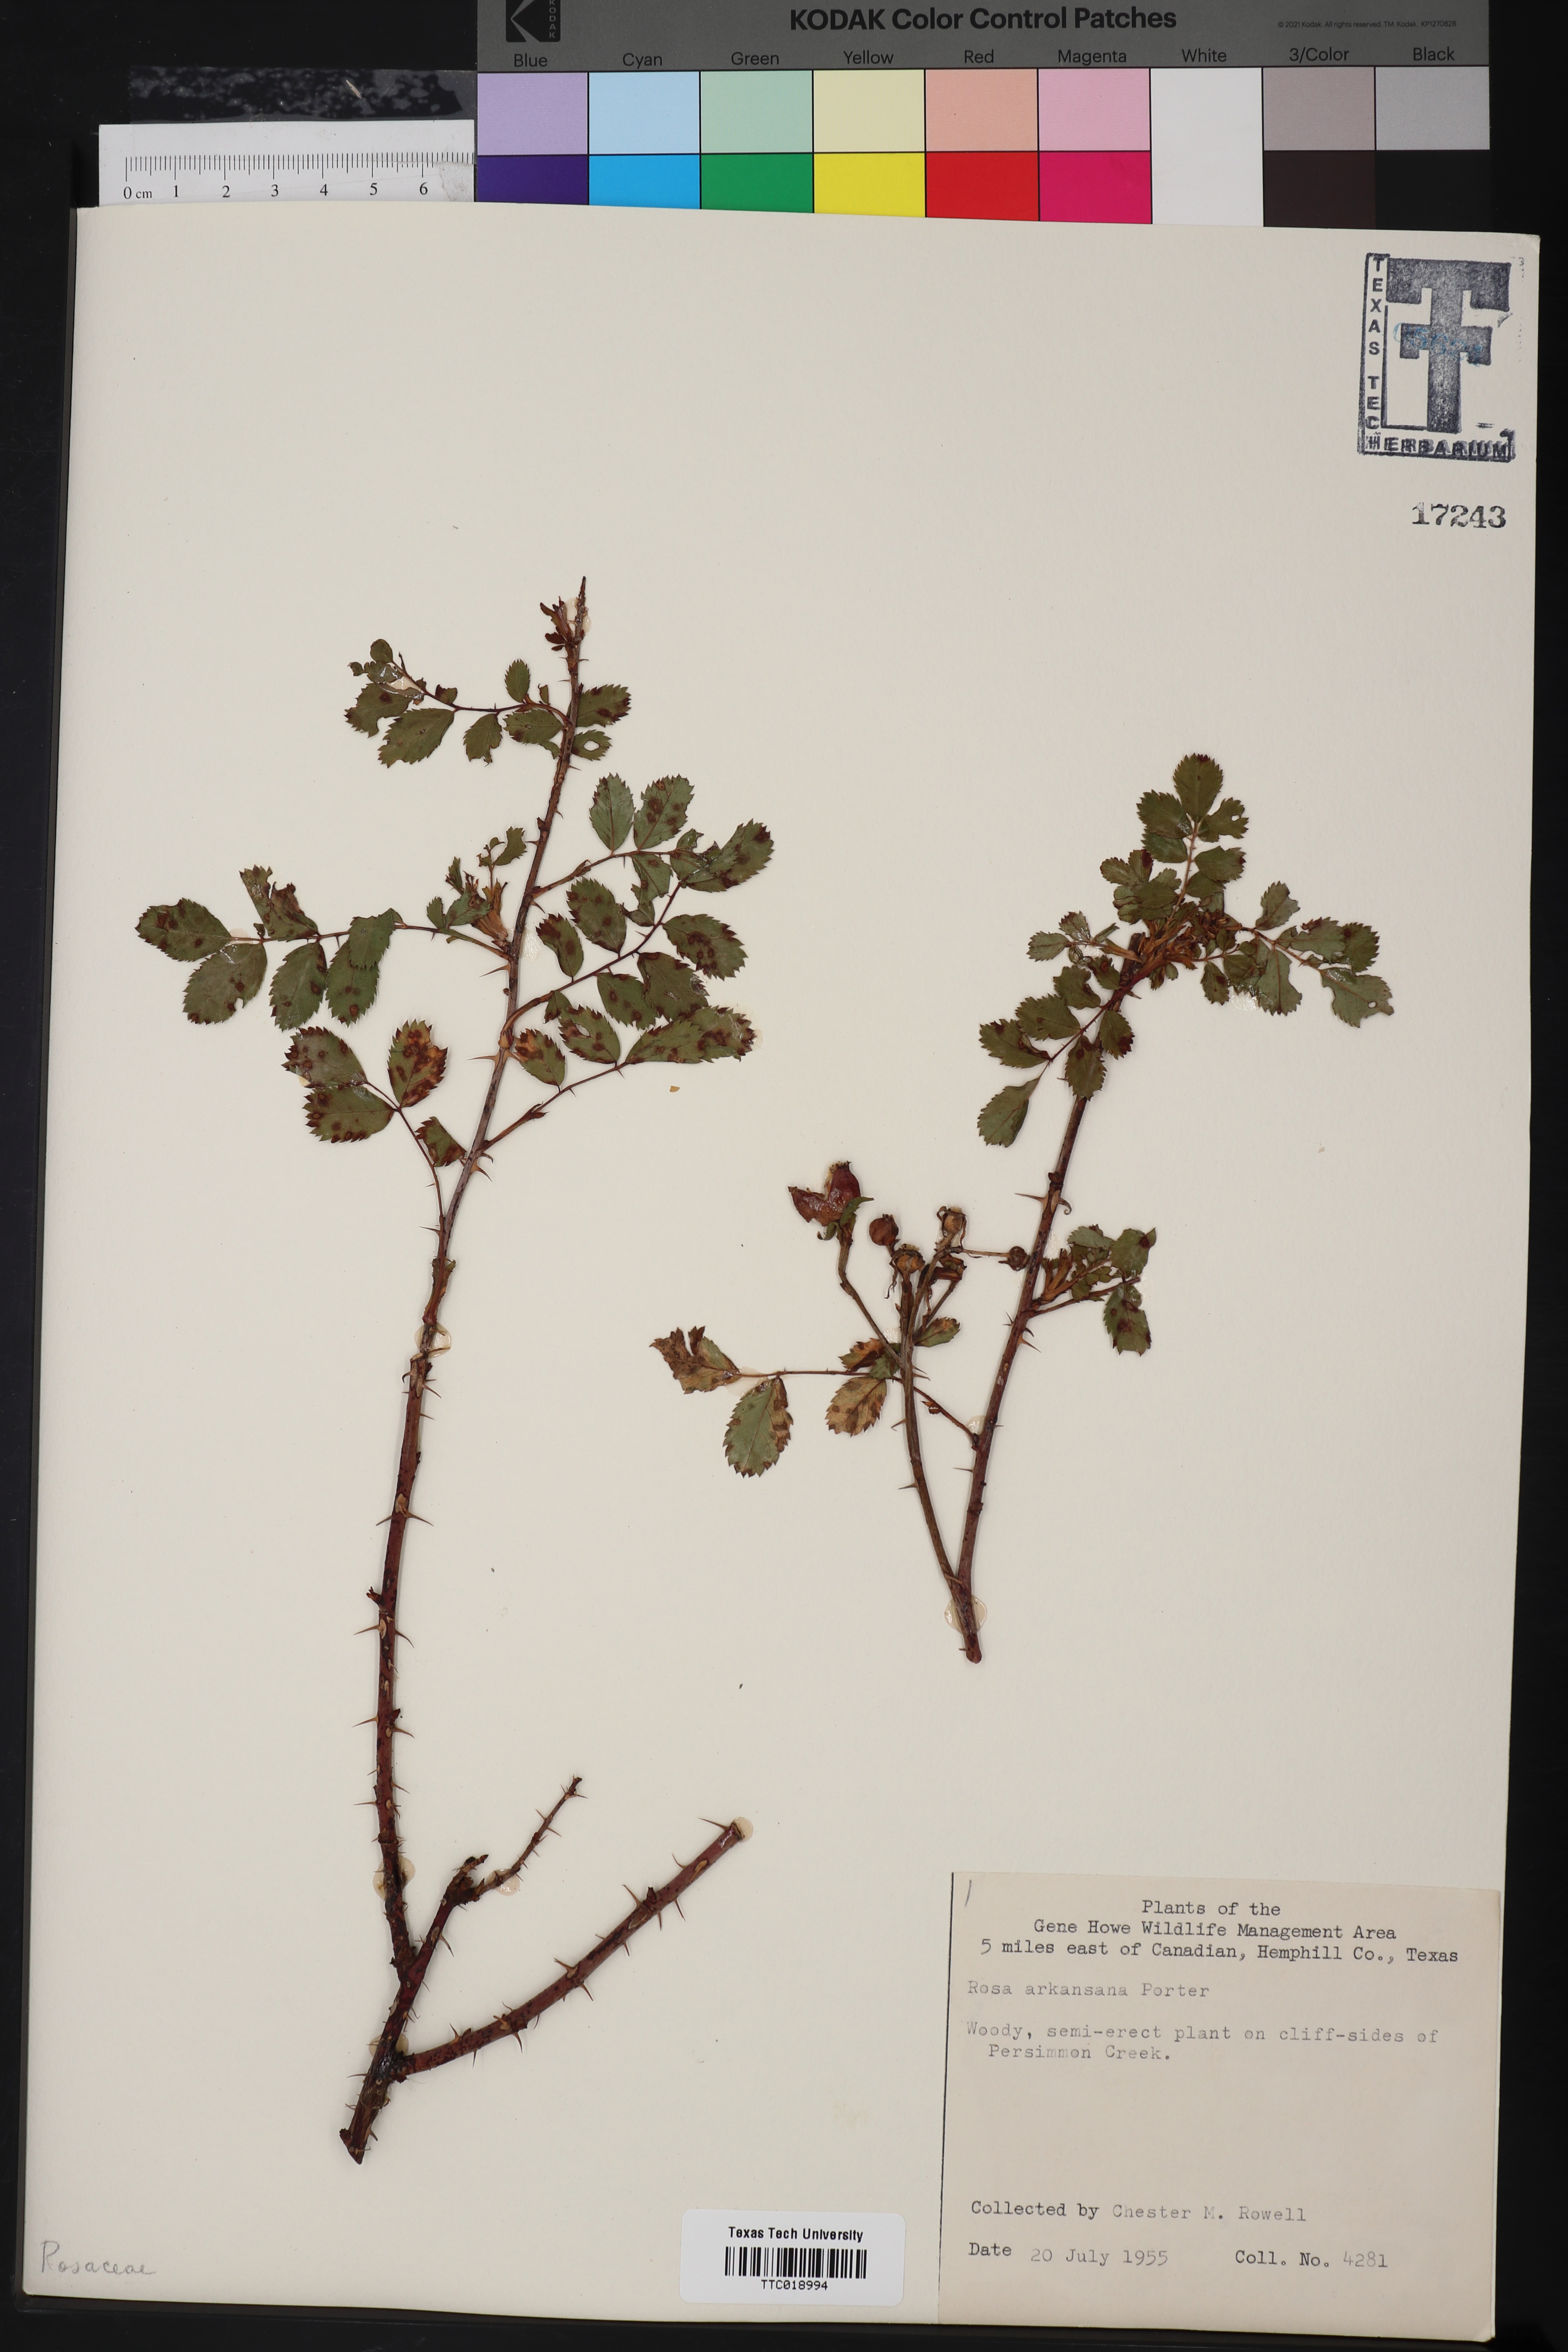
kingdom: Plantae
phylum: Tracheophyta
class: Magnoliopsida
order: Rosales
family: Rosaceae
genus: Rosa
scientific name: Rosa arkansana
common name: Prairie rose
